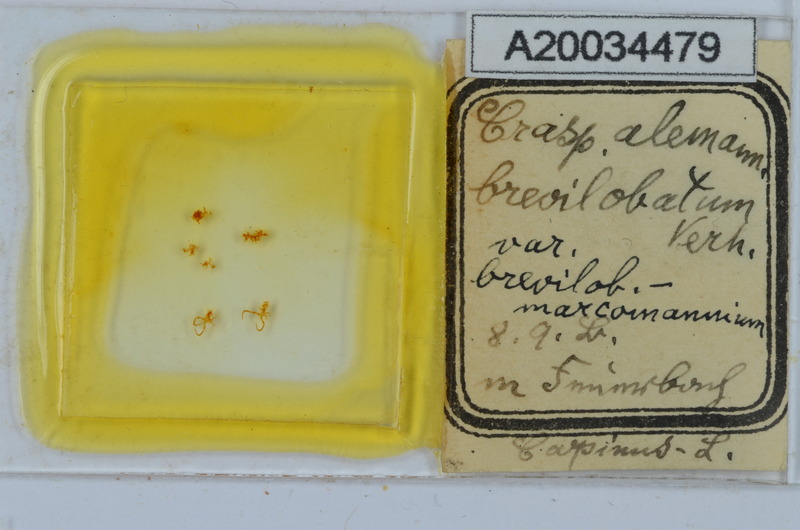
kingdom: Animalia
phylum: Arthropoda
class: Diplopoda
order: Chordeumatida
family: Craspedosomatidae
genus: Craspedosoma
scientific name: Craspedosoma rawlinsii
